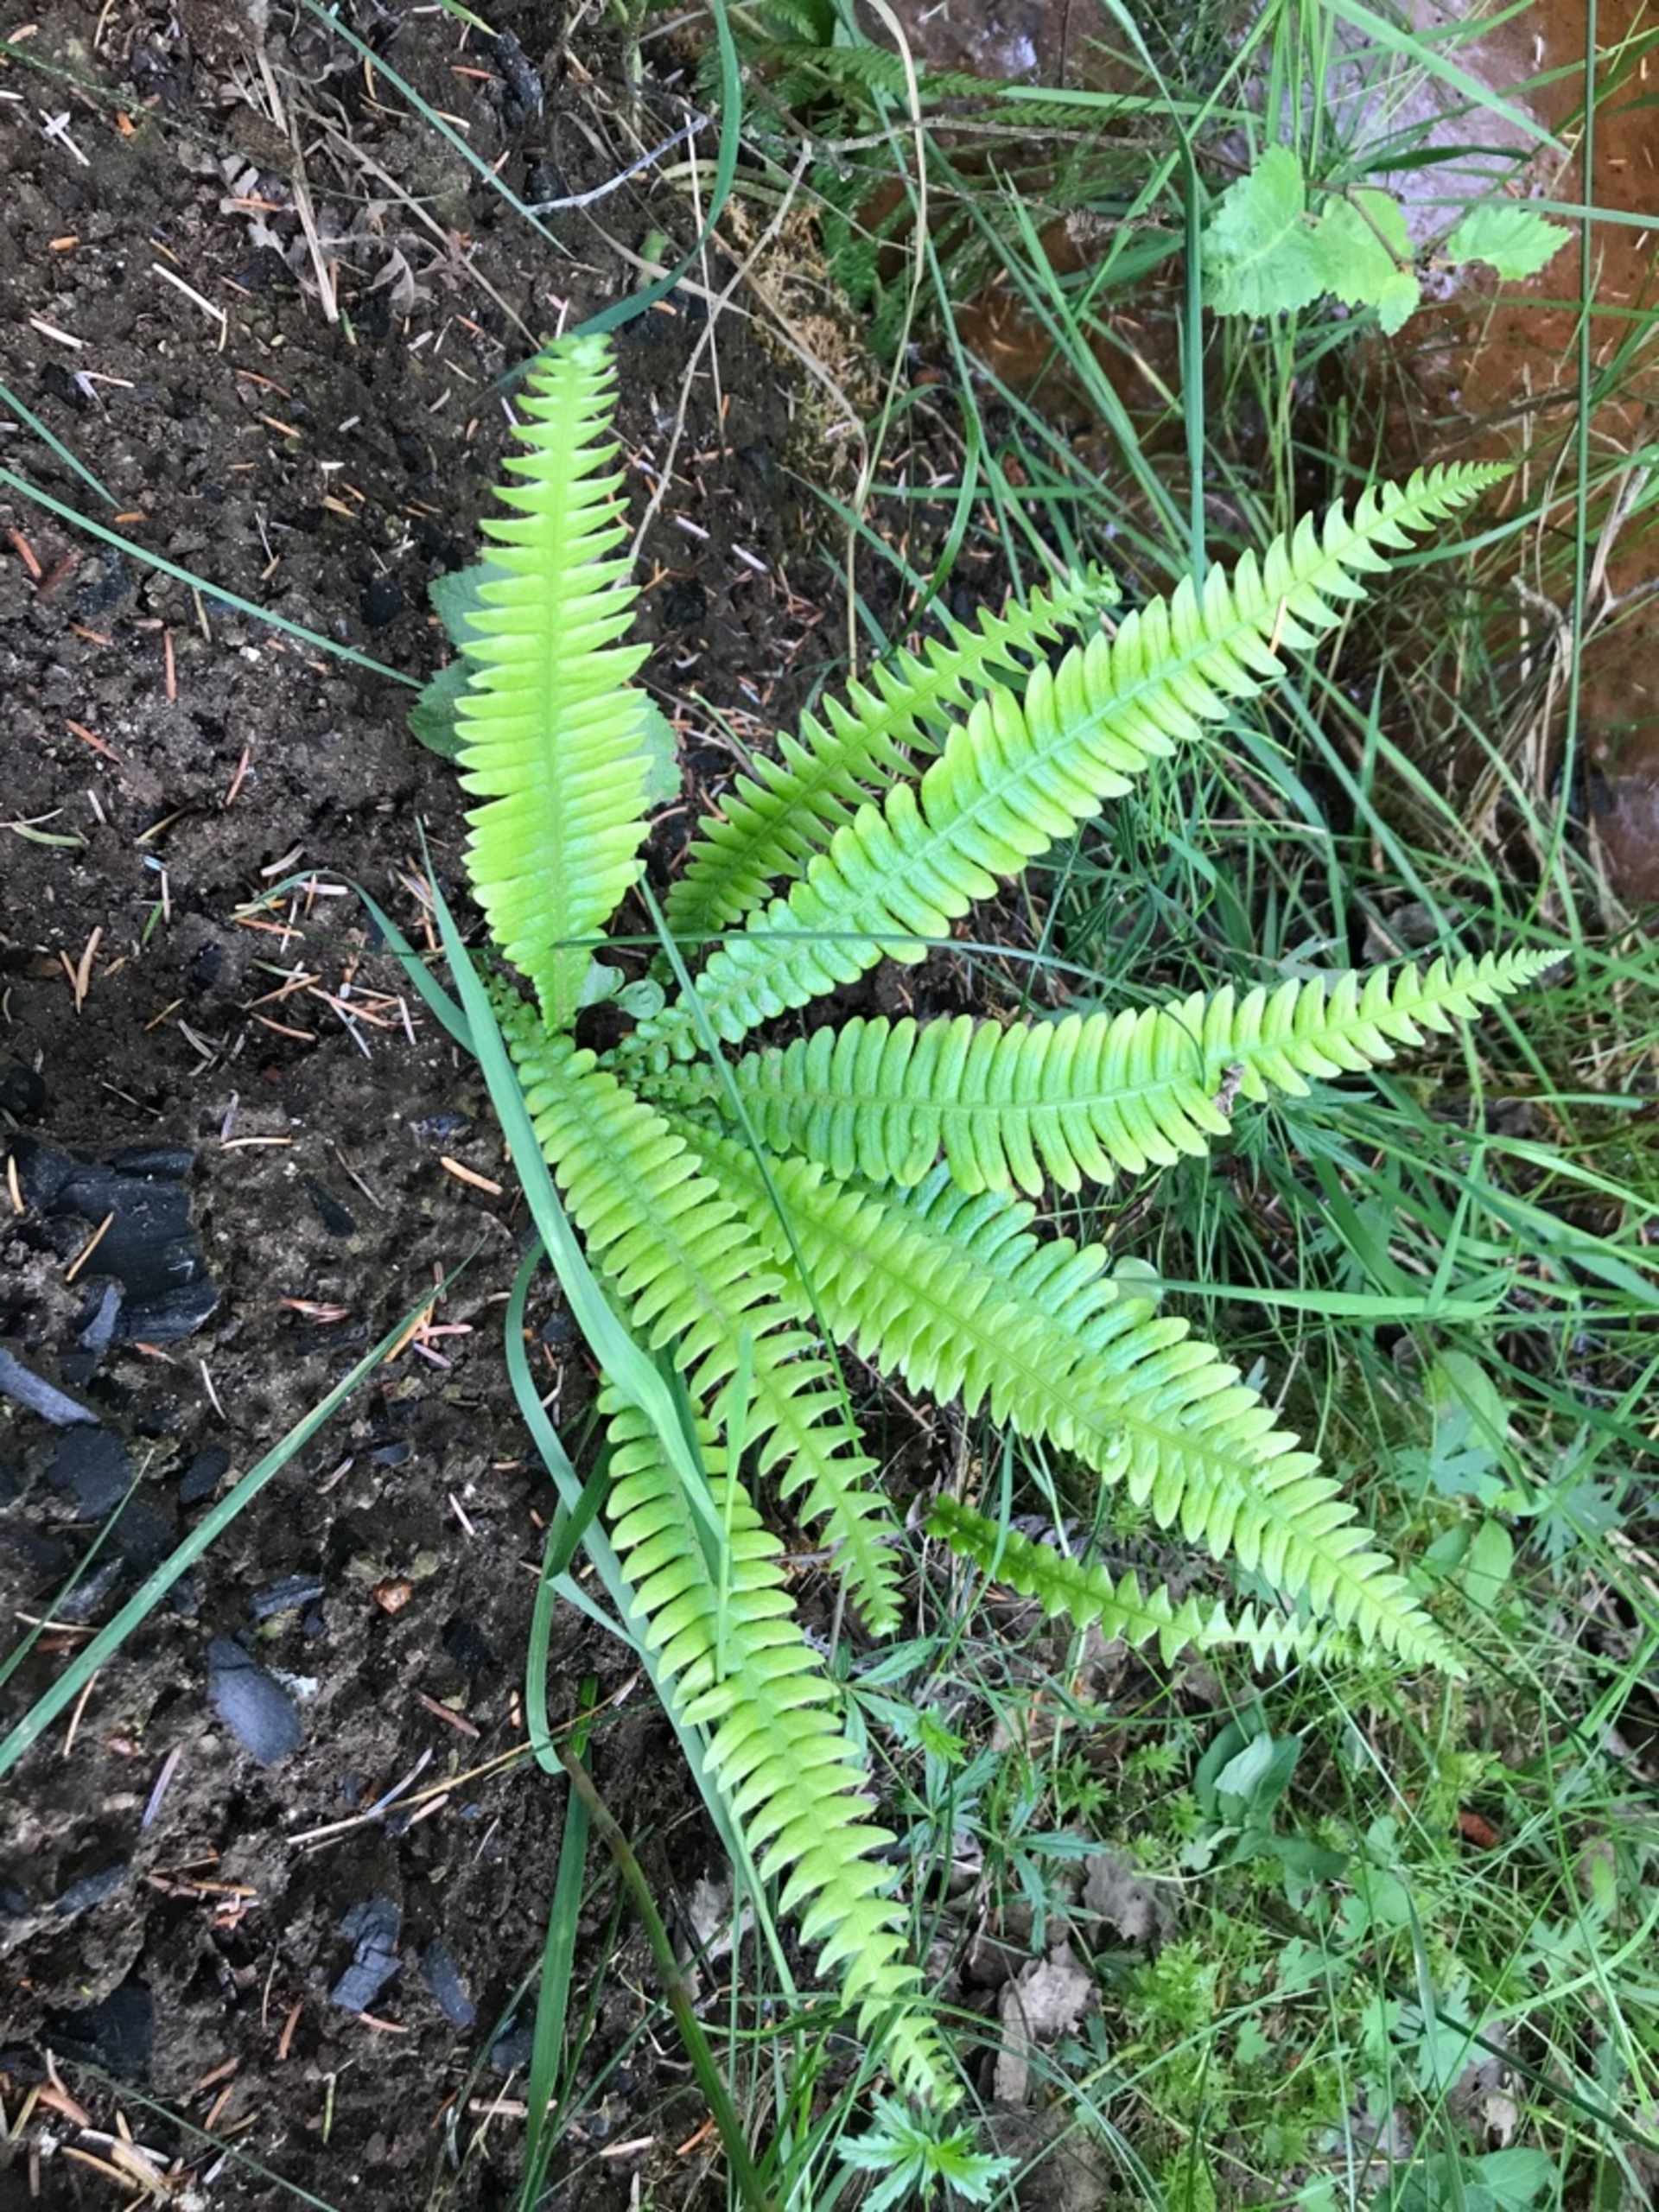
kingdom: Plantae
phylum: Tracheophyta
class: Polypodiopsida
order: Polypodiales
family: Blechnaceae
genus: Struthiopteris
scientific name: Struthiopteris spicant
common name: Kambregne
